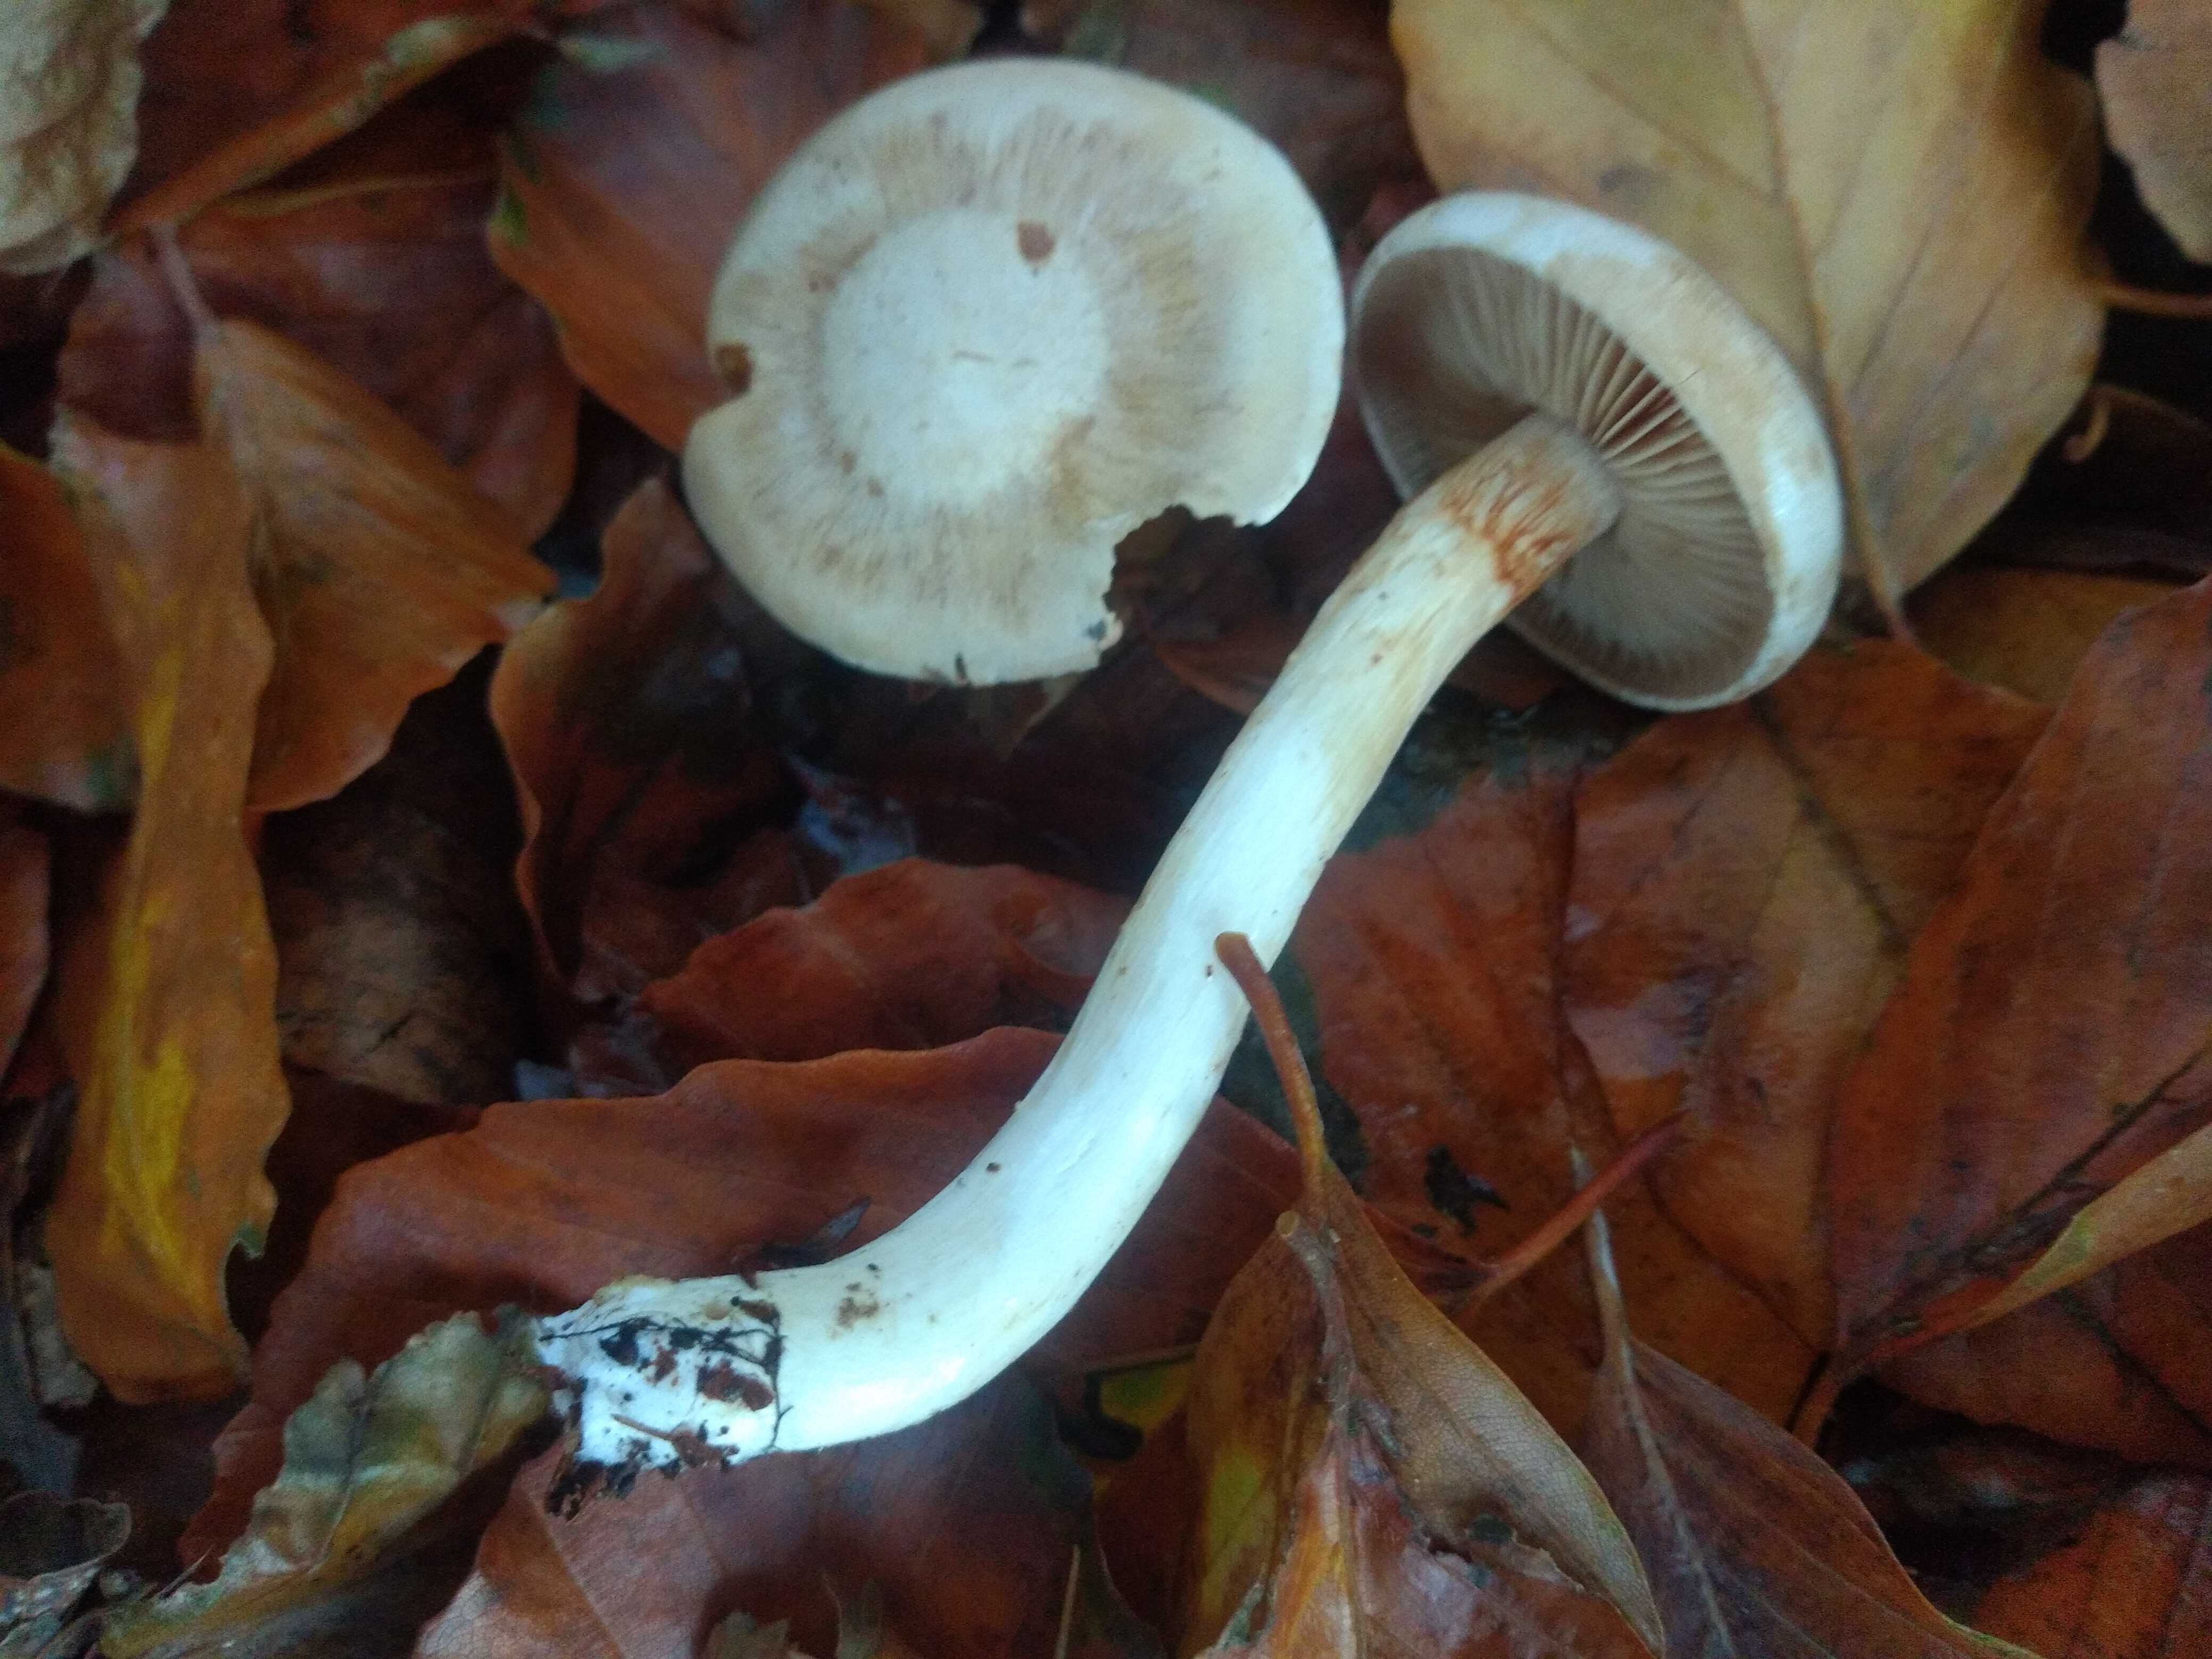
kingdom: Fungi
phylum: Basidiomycota
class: Agaricomycetes
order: Agaricales
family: Cortinariaceae
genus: Thaxterogaster
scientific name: Thaxterogaster leucoluteolus
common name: isabella slørhat
